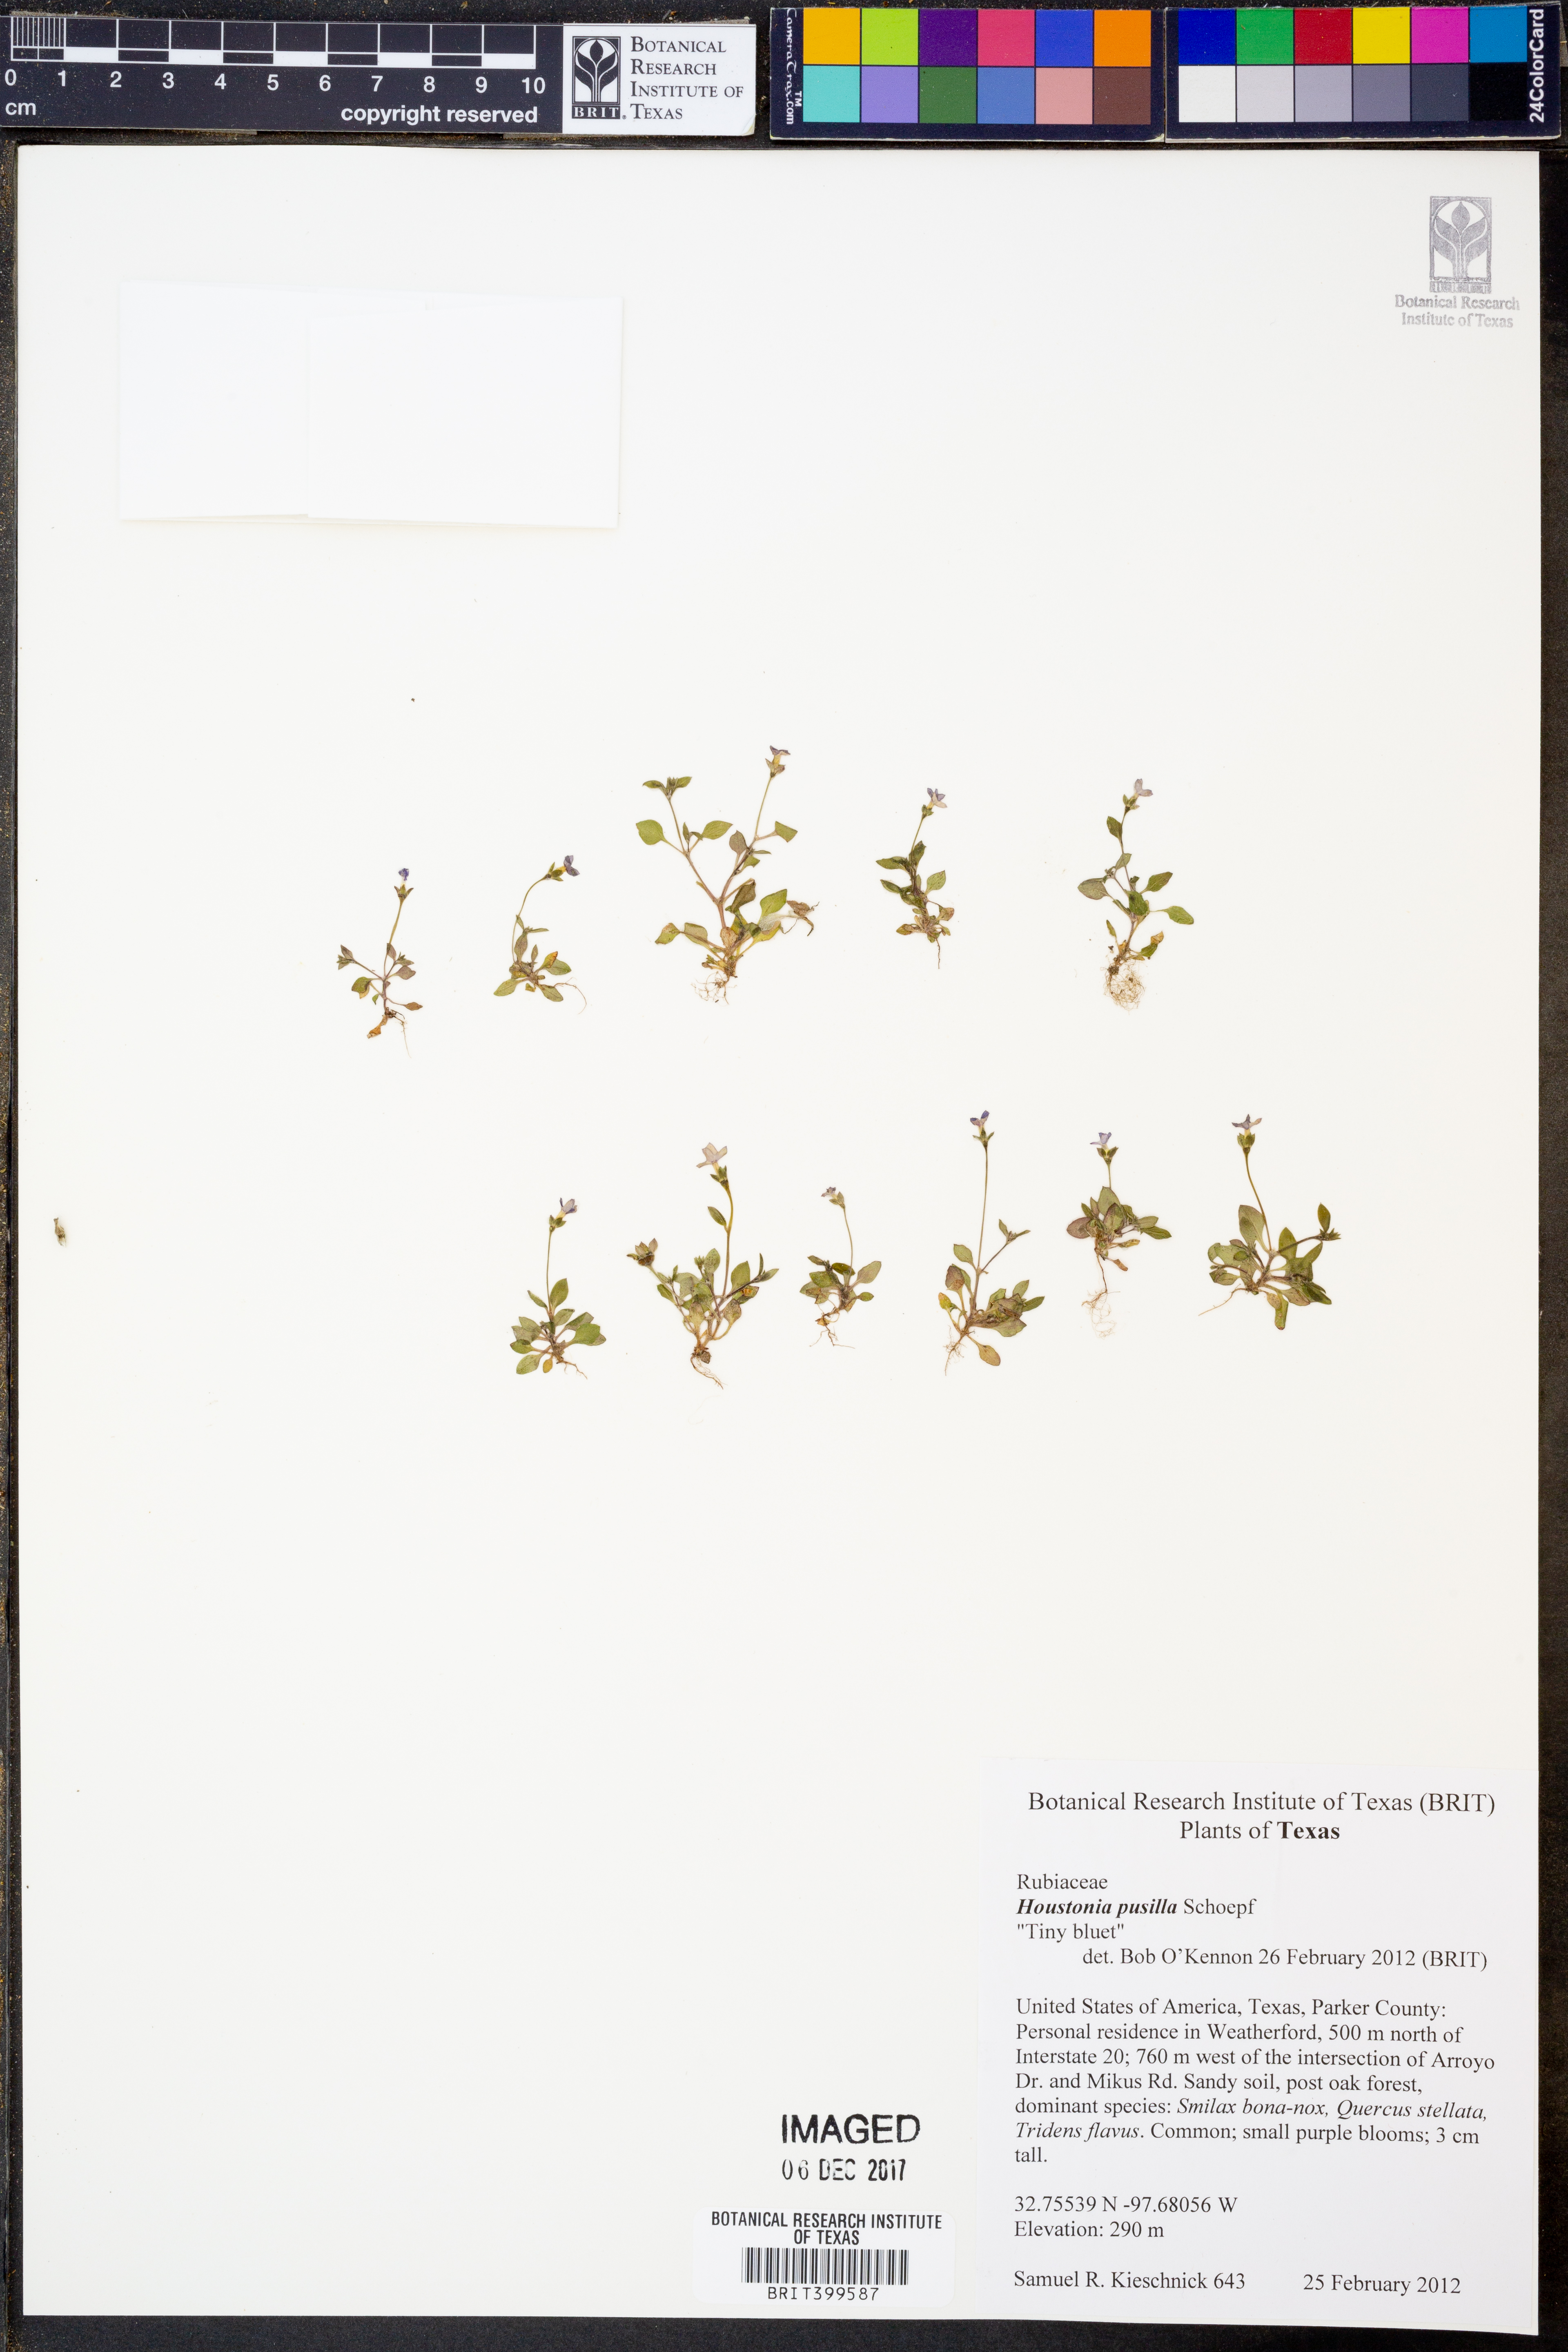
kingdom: Plantae
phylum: Tracheophyta
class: Magnoliopsida
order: Gentianales
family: Rubiaceae
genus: Houstonia
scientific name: Houstonia pusilla
